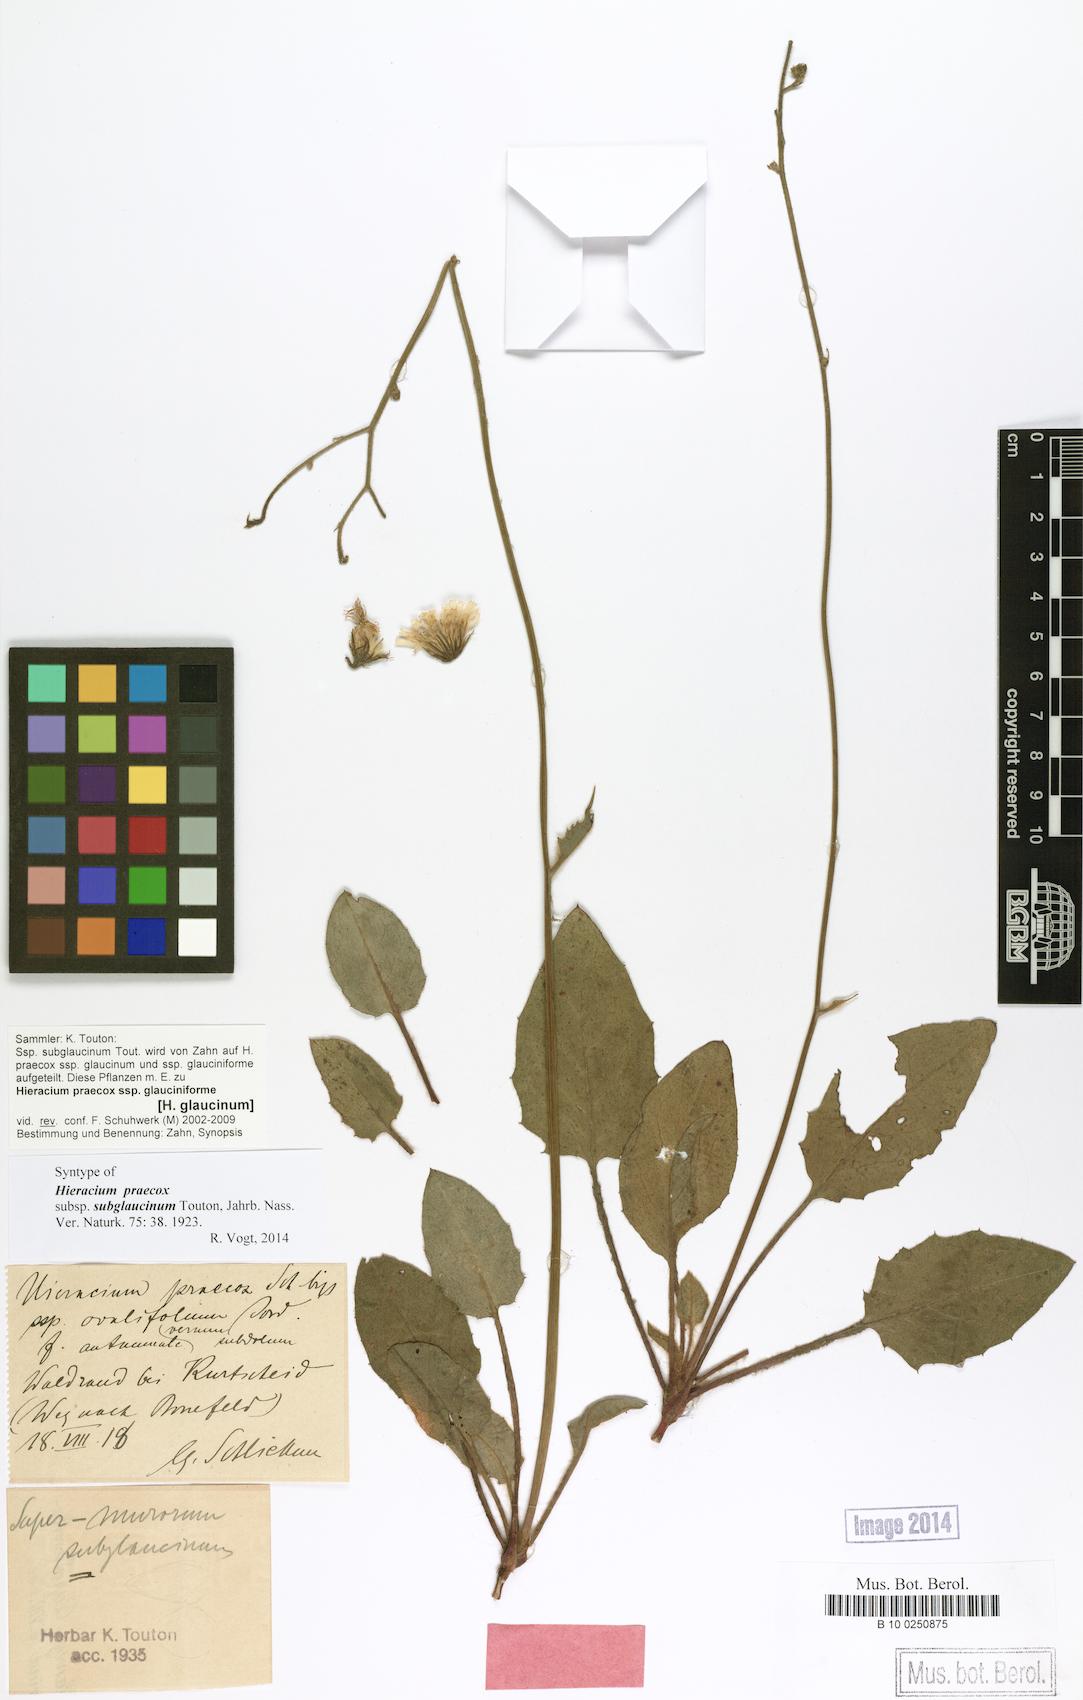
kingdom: Plantae
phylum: Tracheophyta
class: Magnoliopsida
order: Asterales
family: Asteraceae
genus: Hieracium
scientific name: Hieracium glaucinum
